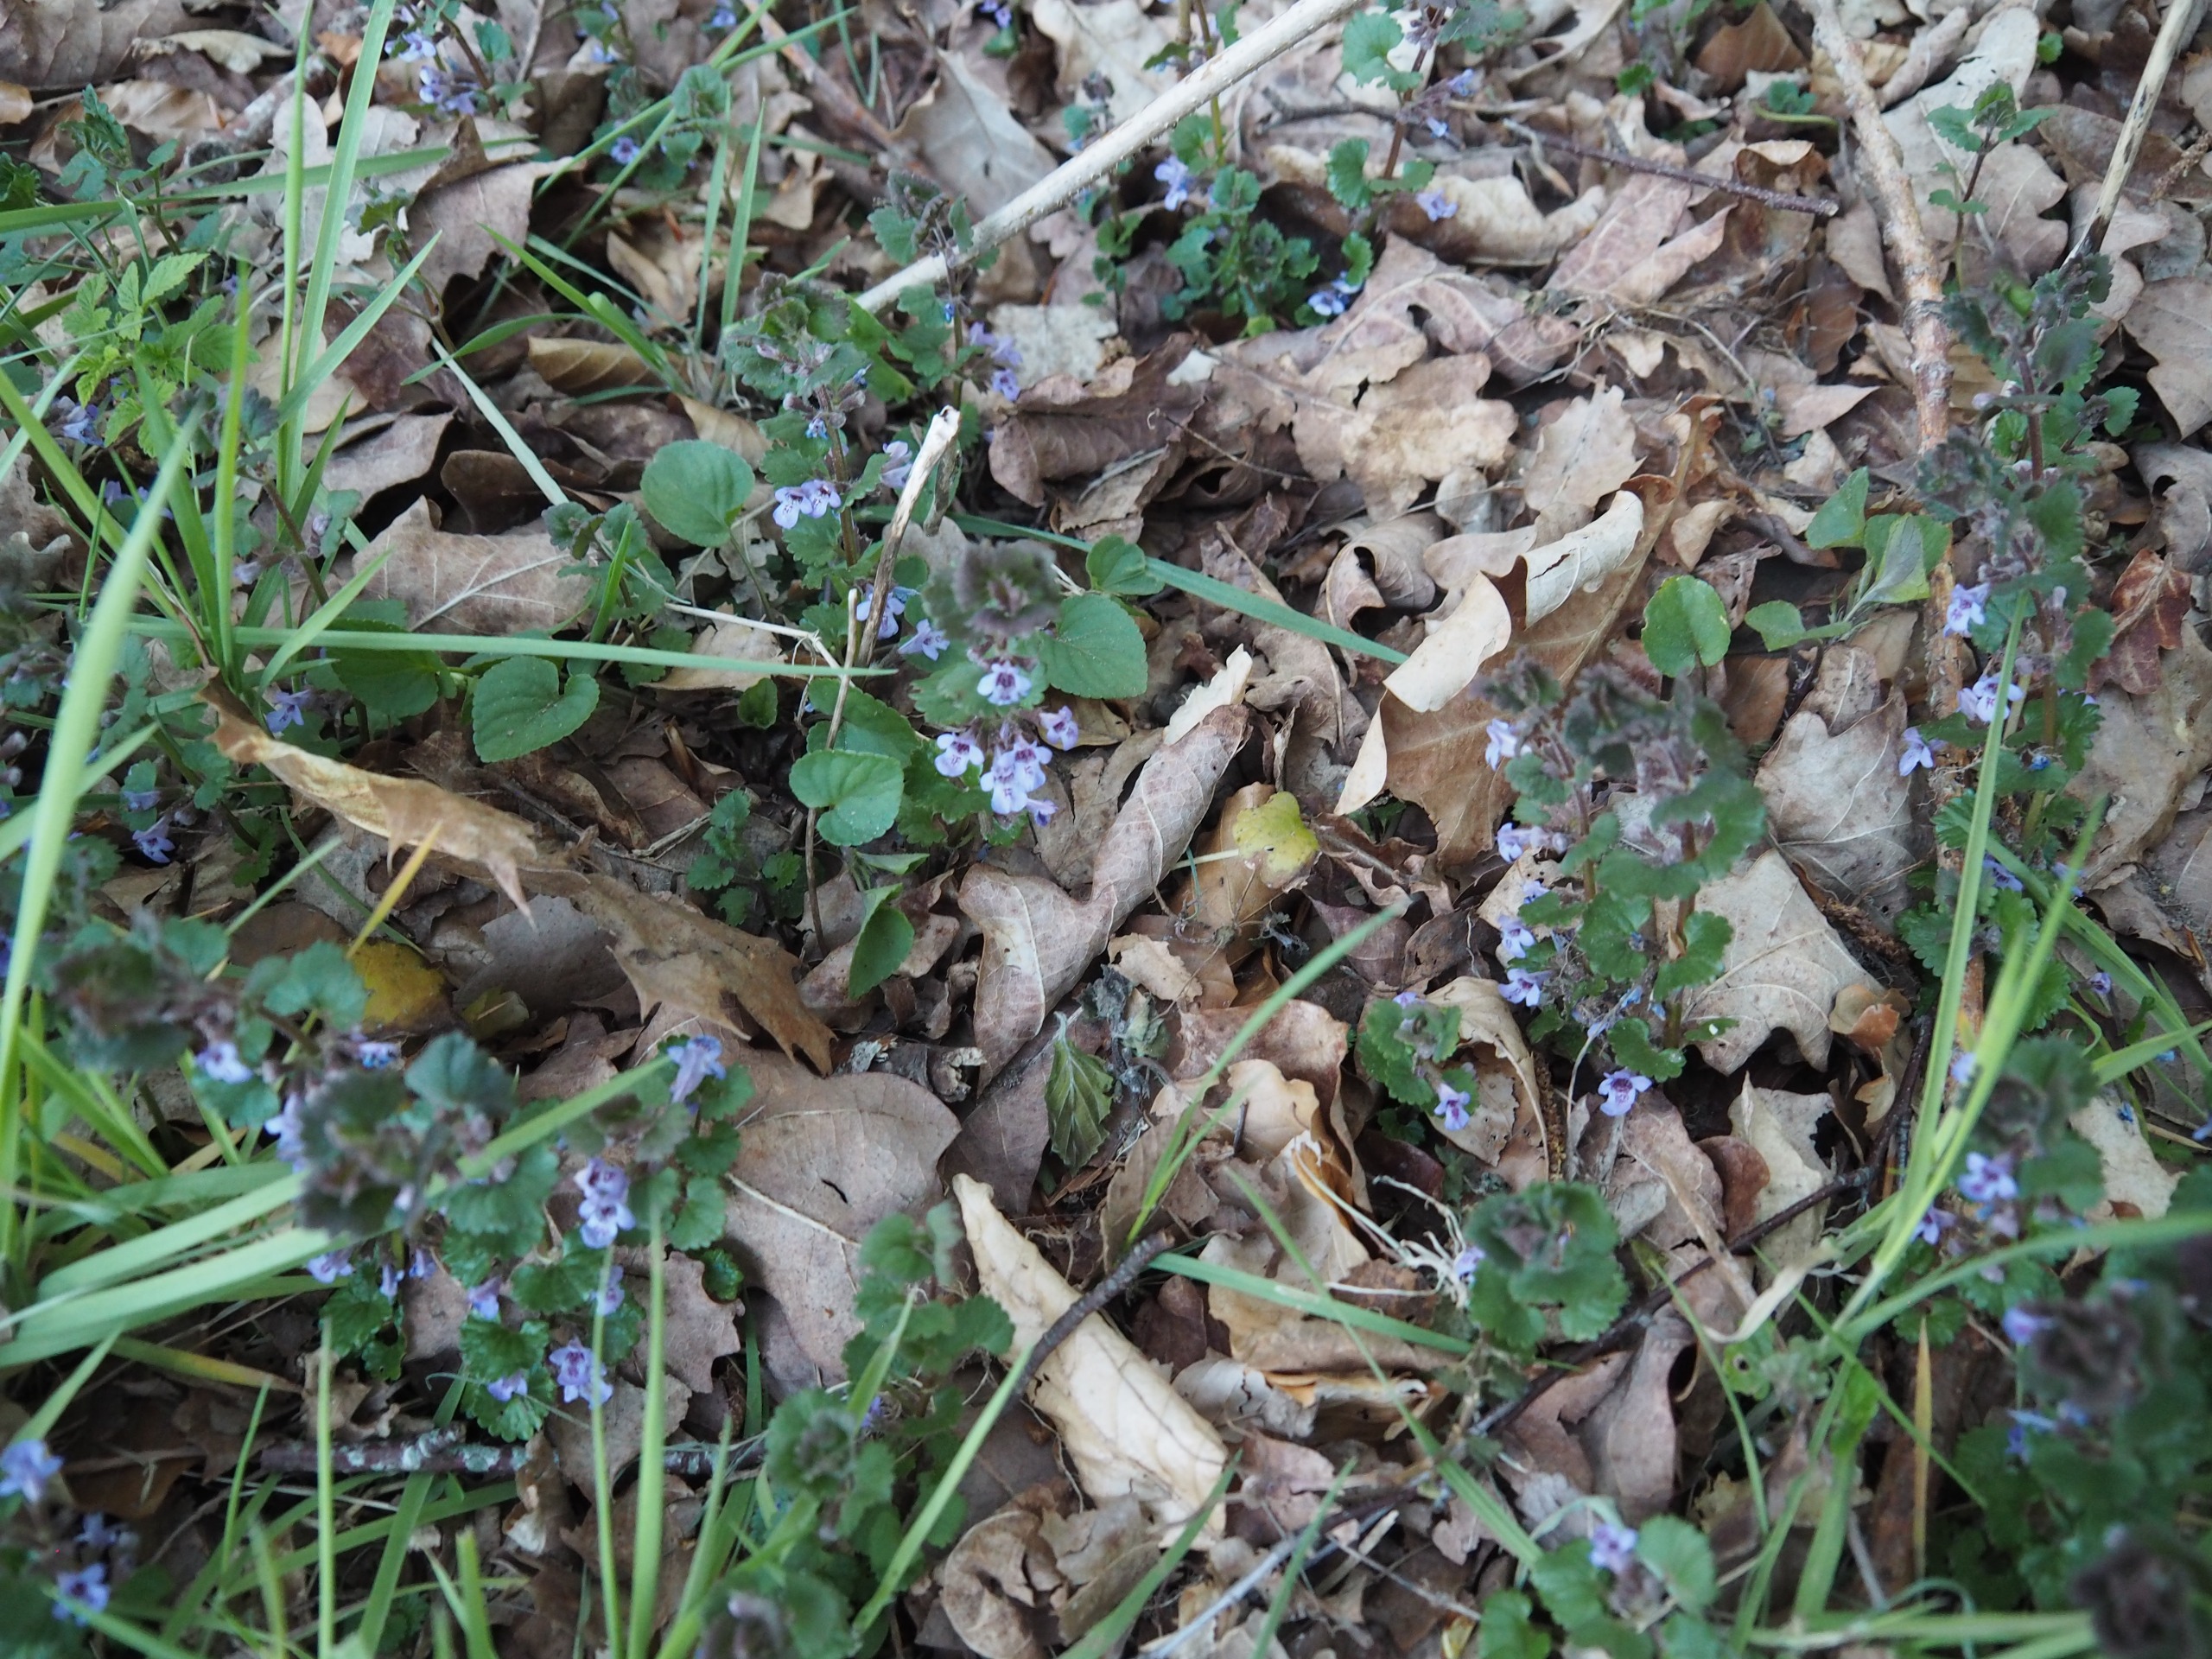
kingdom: Plantae
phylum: Tracheophyta
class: Magnoliopsida
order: Lamiales
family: Lamiaceae
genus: Glechoma
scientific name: Glechoma hederacea
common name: Korsknap
